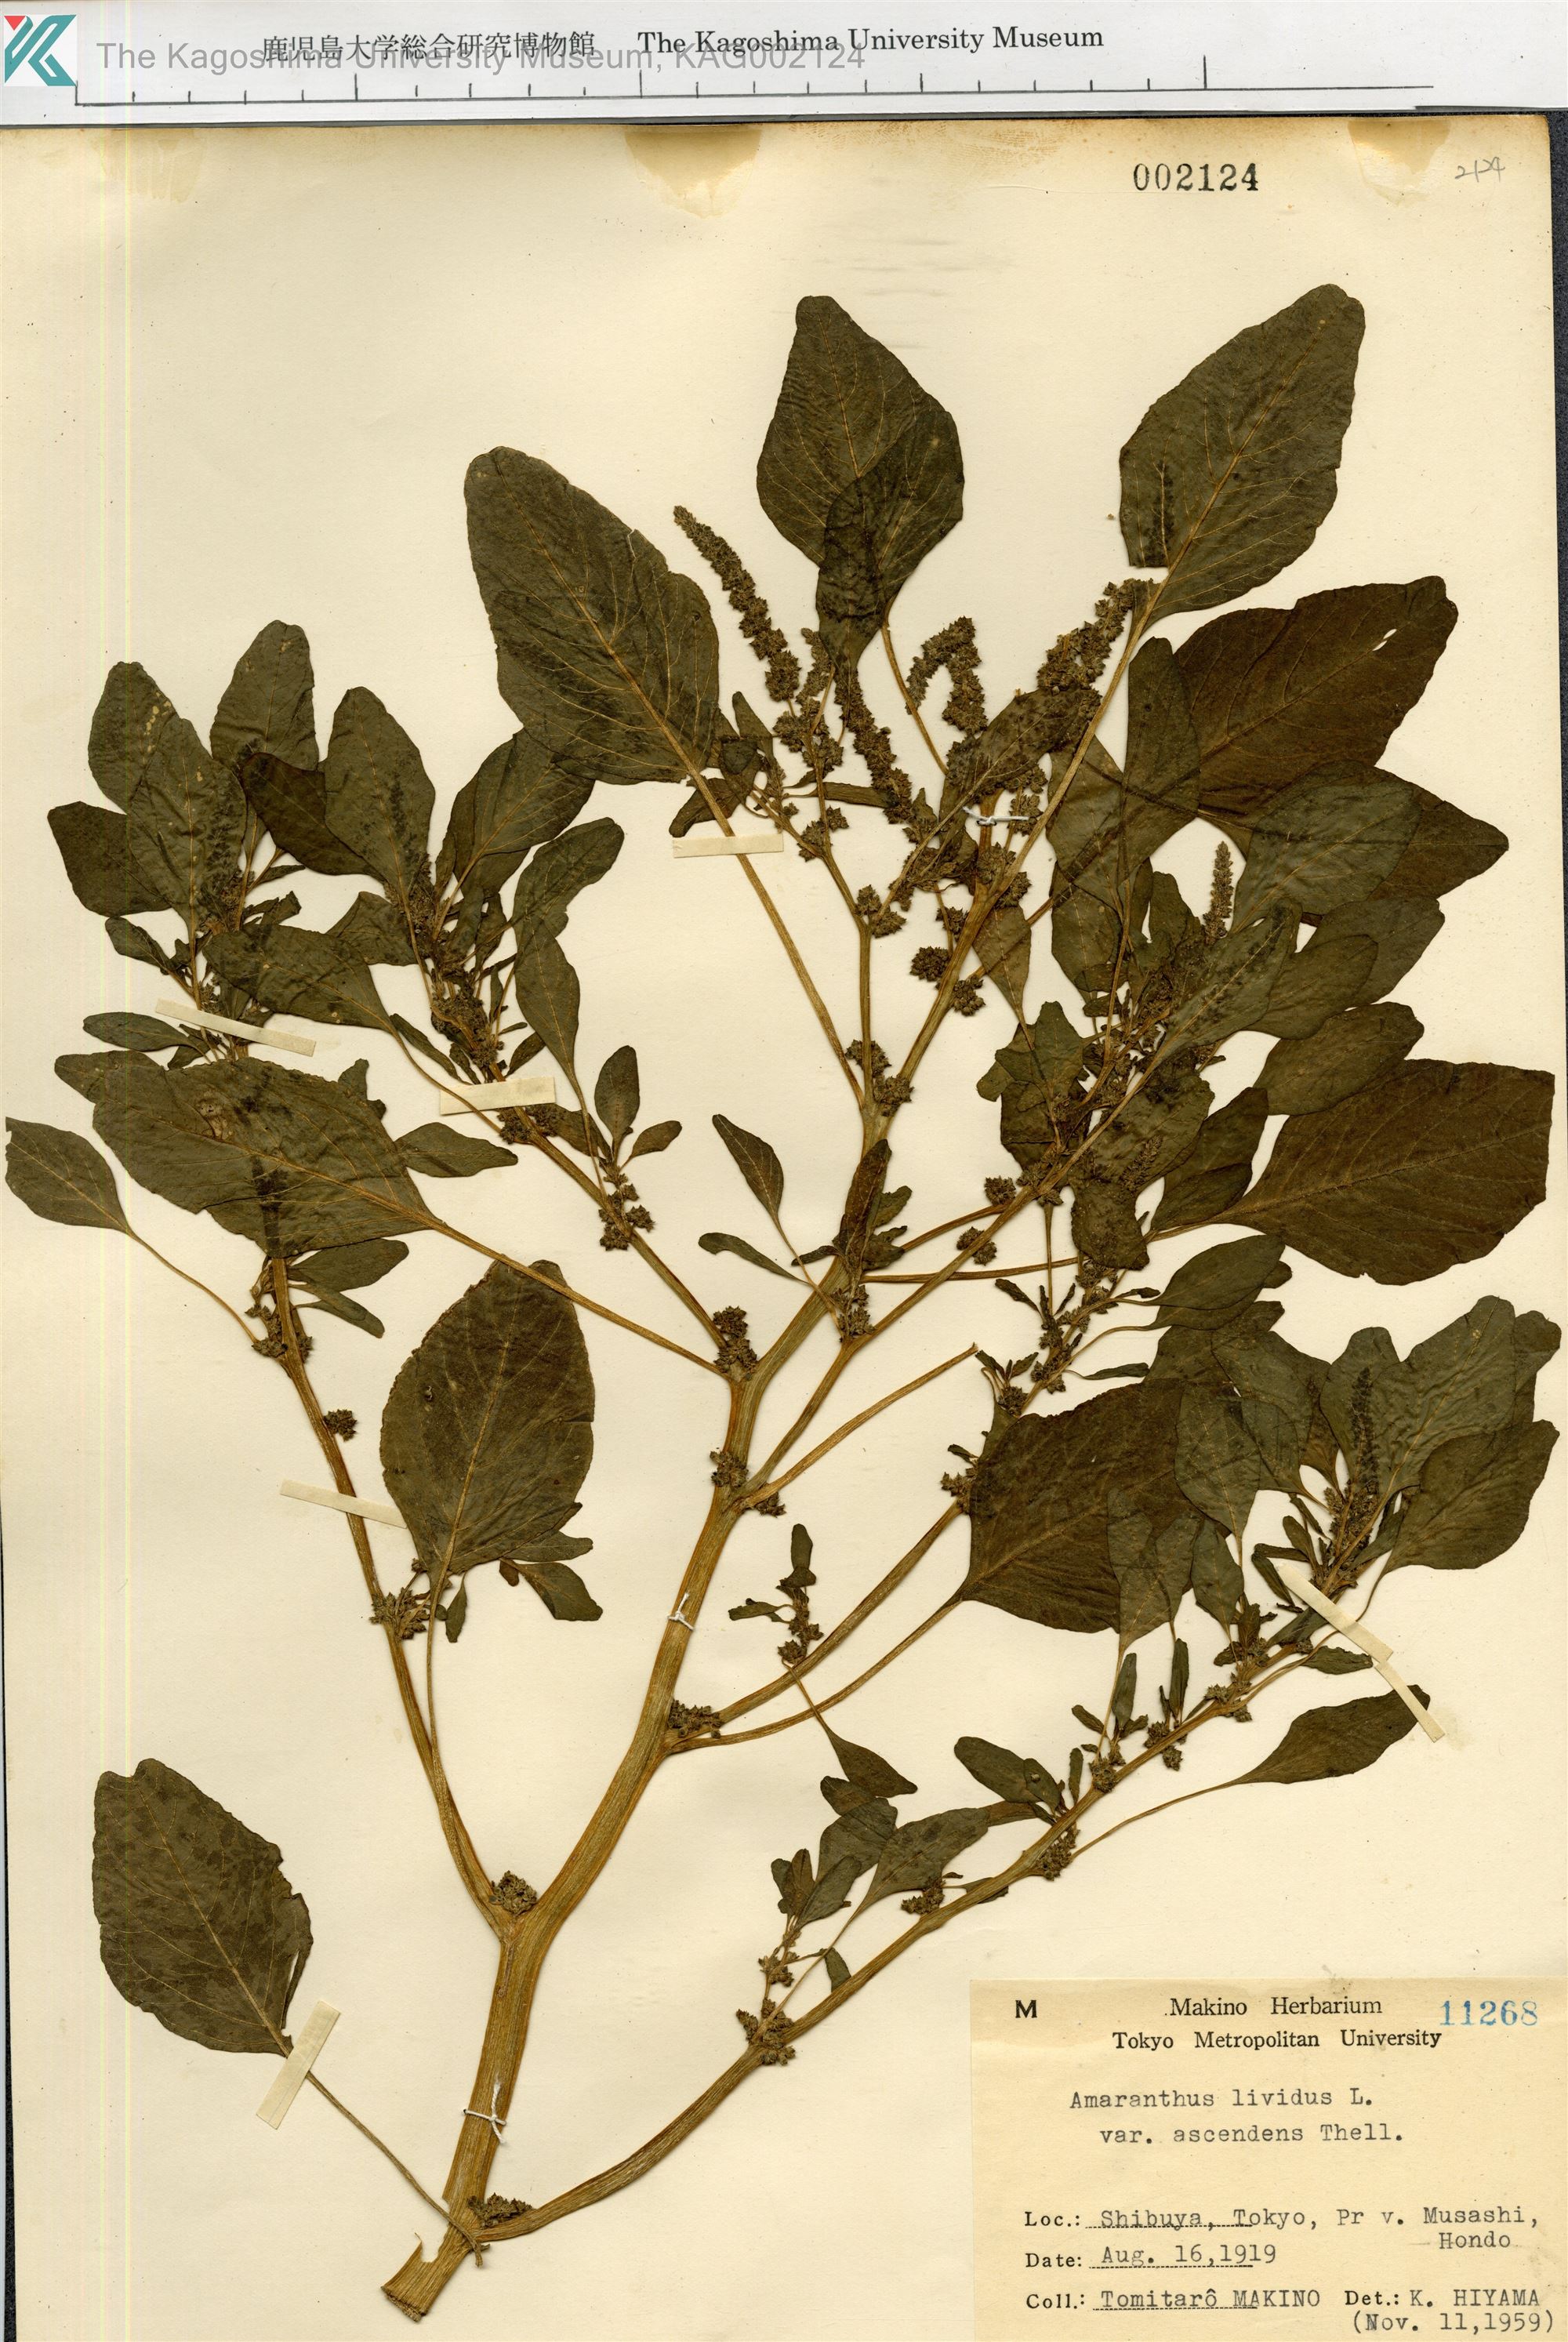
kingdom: Plantae
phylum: Tracheophyta
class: Magnoliopsida
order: Caryophyllales
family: Amaranthaceae
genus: Amaranthus
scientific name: Amaranthus blitum
